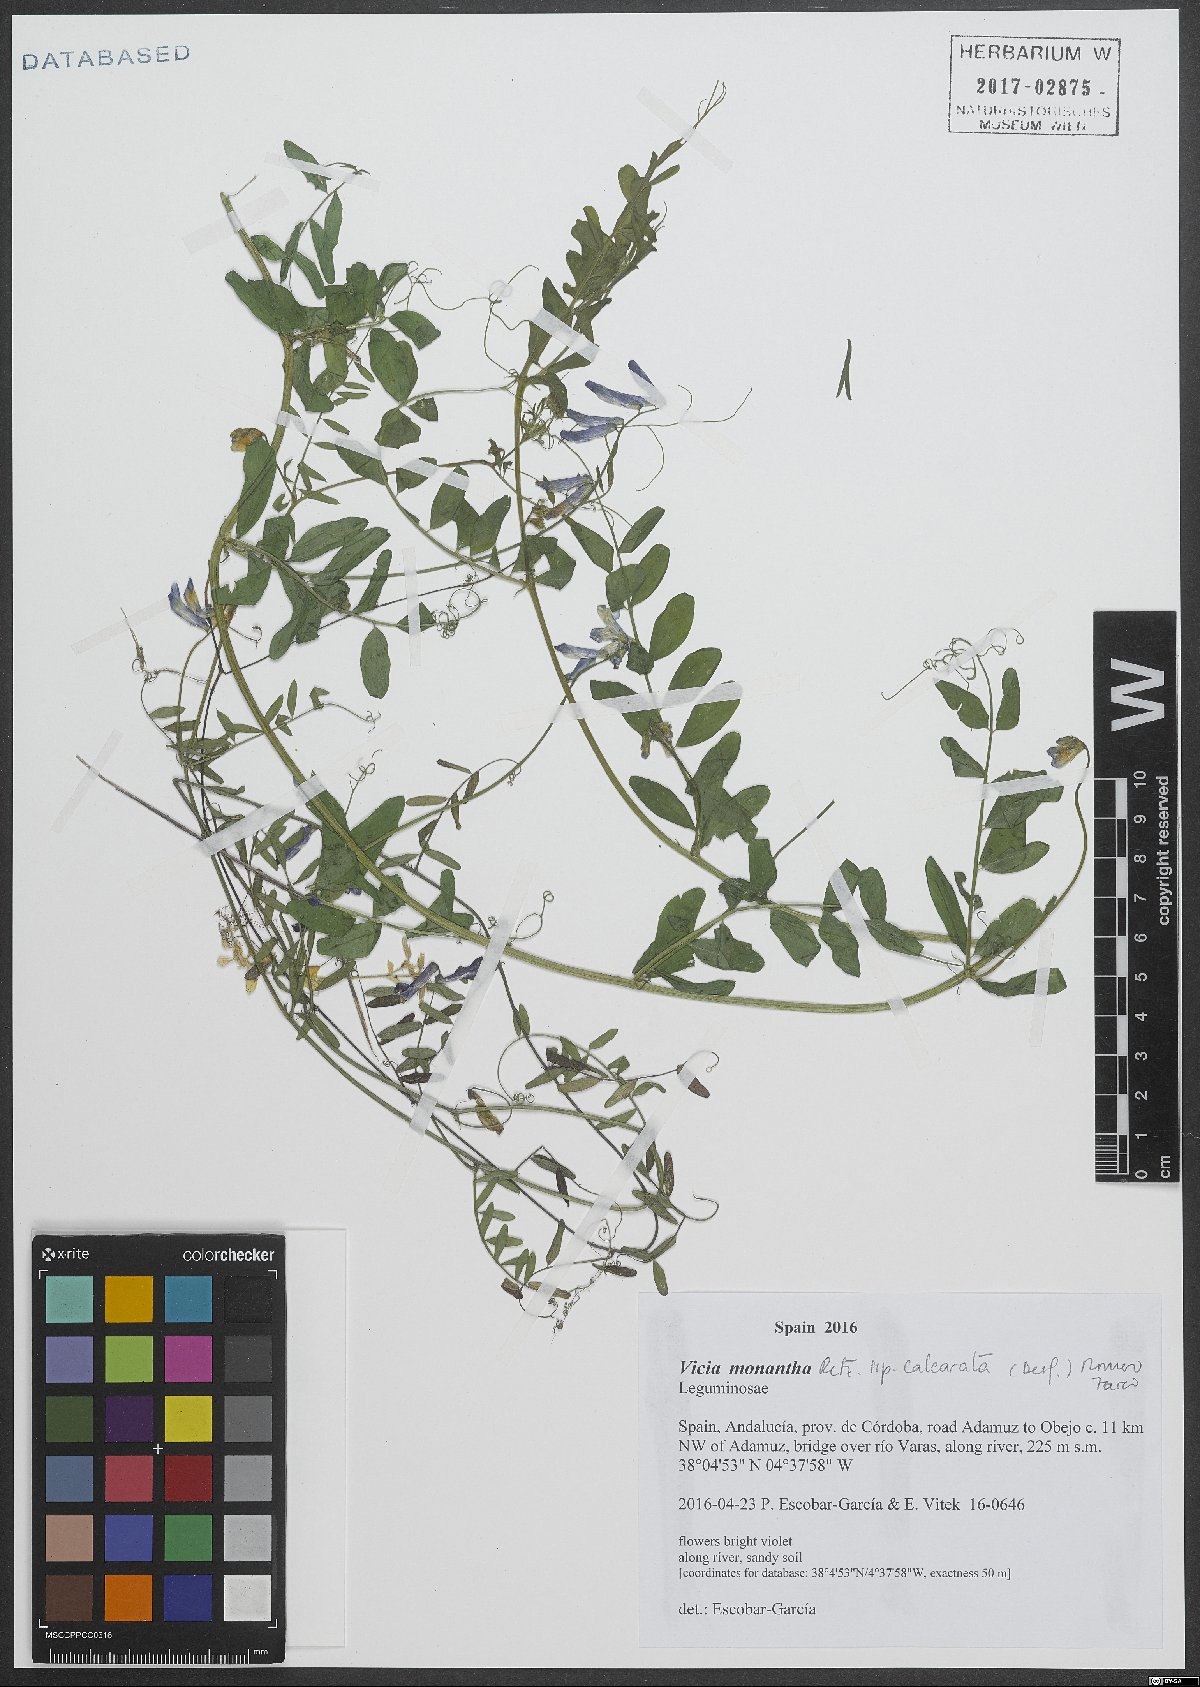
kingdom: Plantae
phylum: Tracheophyta
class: Magnoliopsida
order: Fabales
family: Fabaceae
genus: Vicia
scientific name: Vicia monantha
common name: Barn vetch
